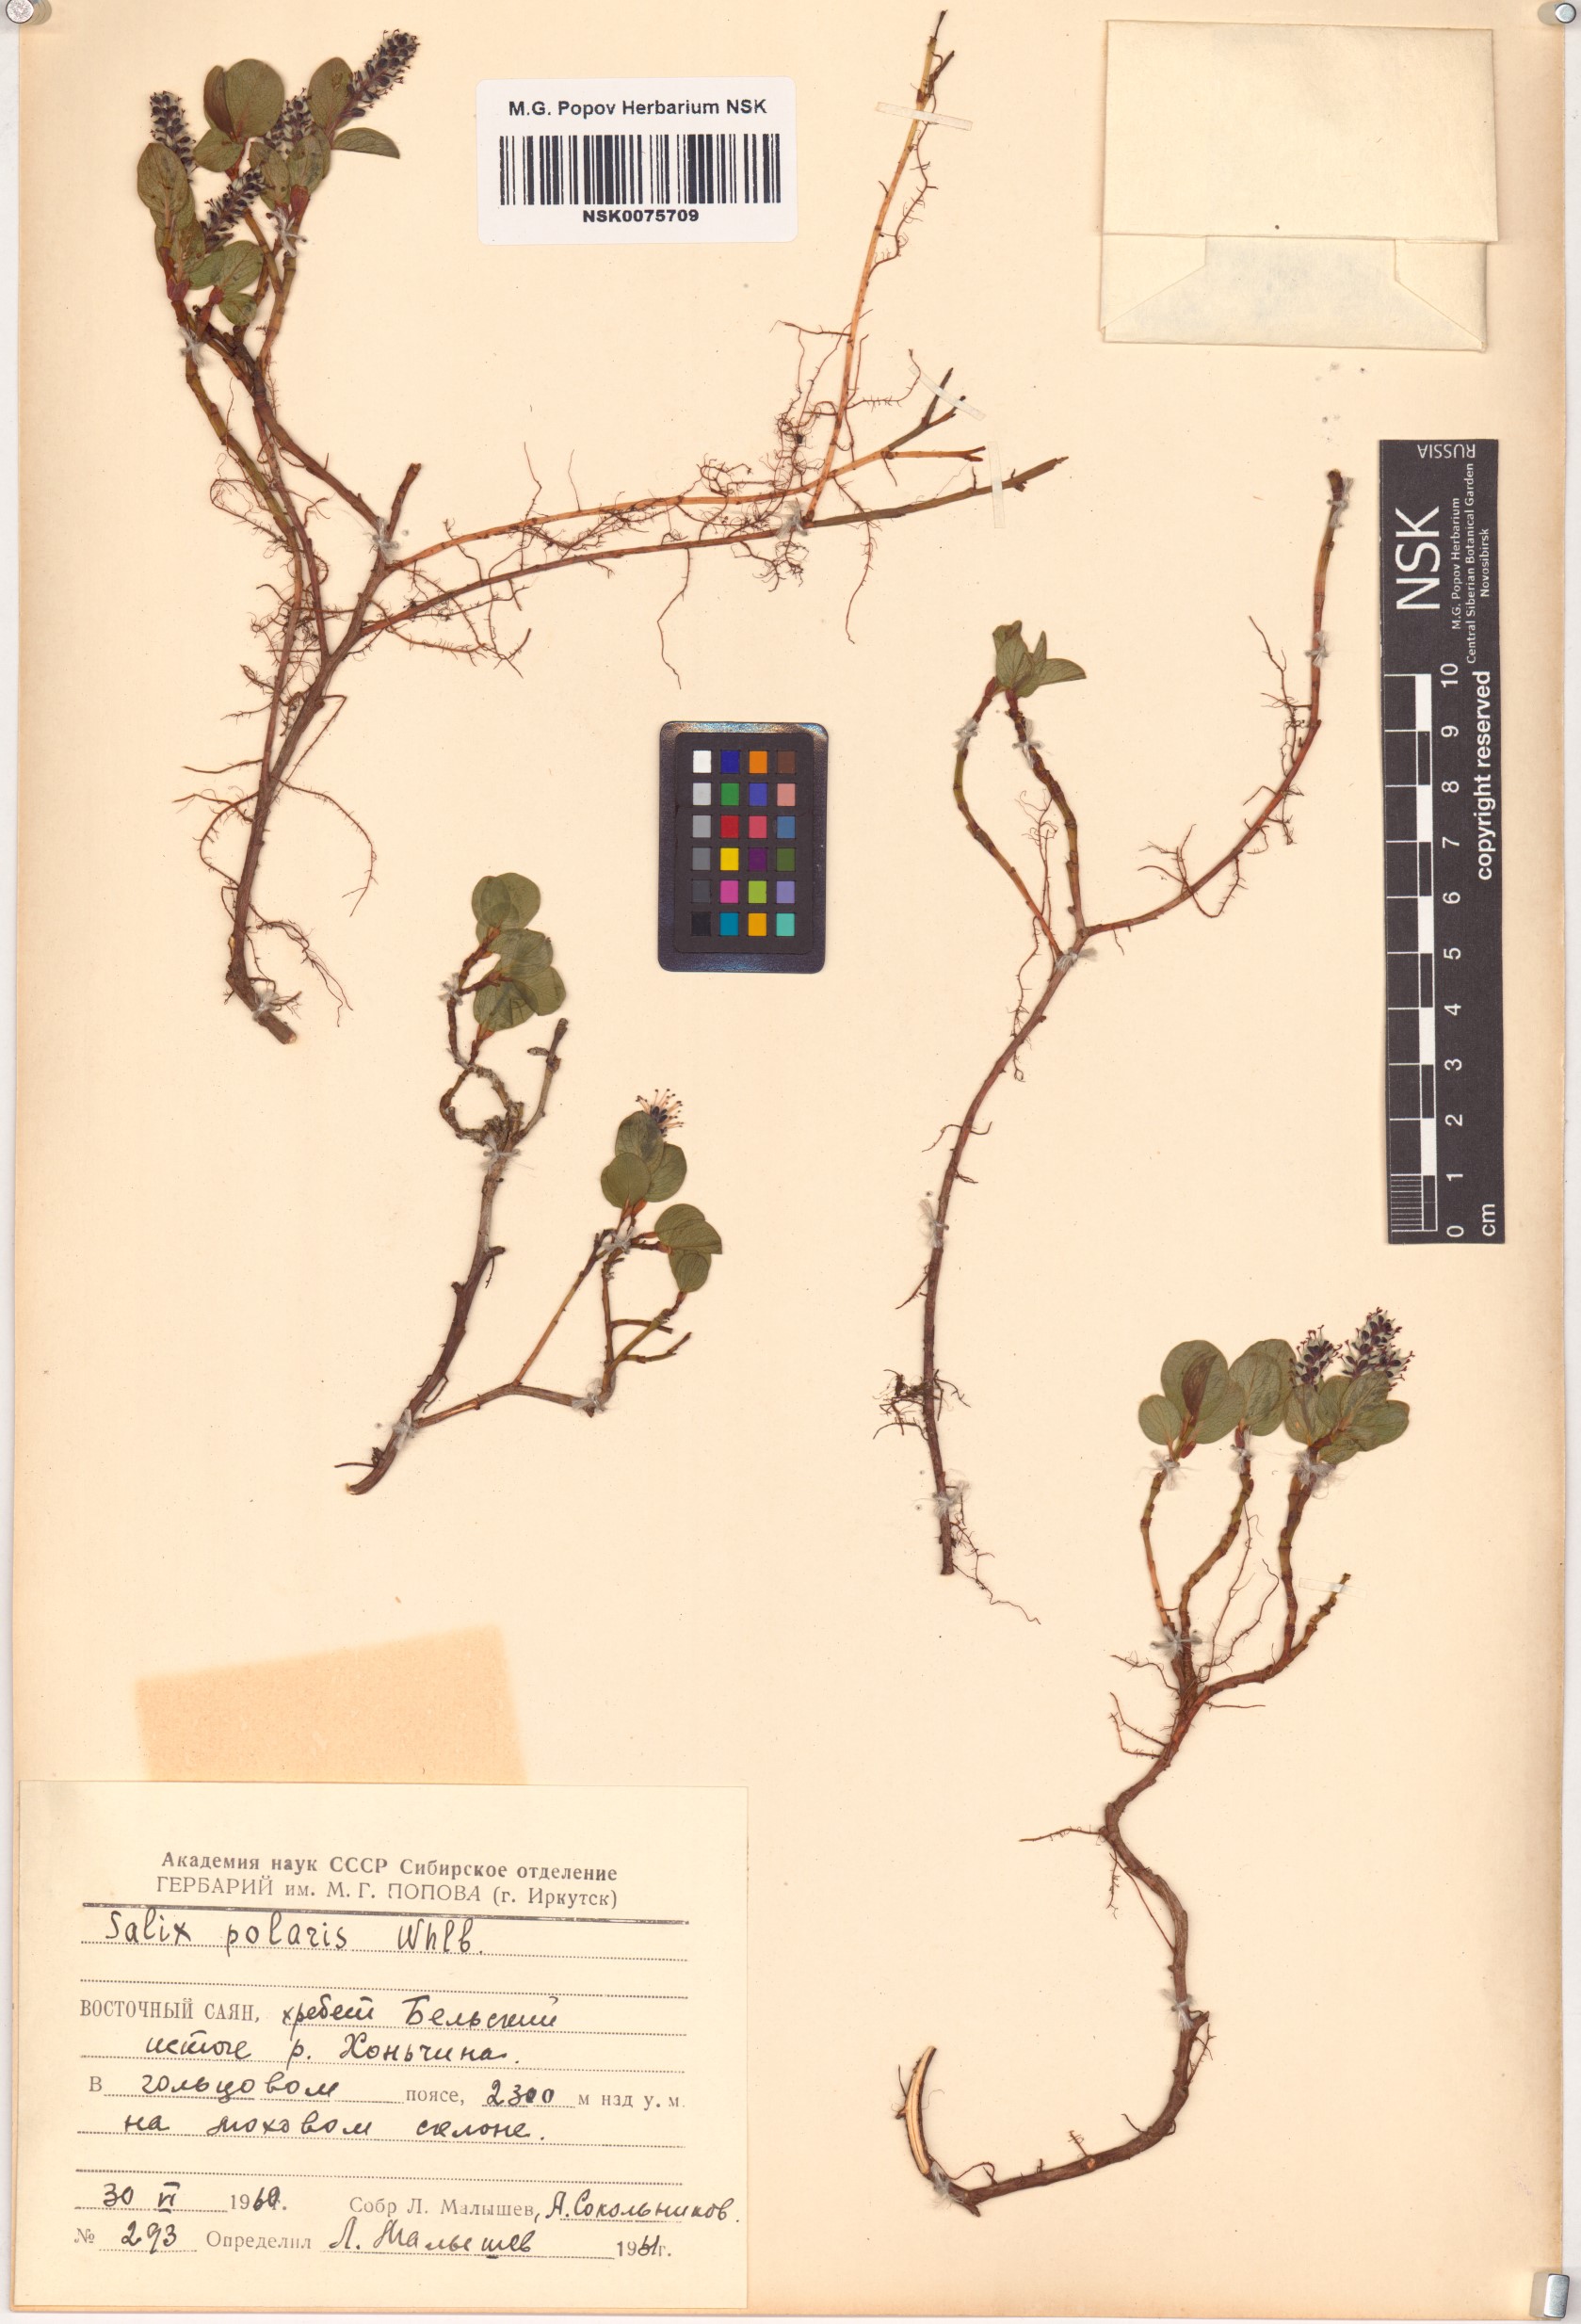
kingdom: Plantae
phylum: Tracheophyta
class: Magnoliopsida
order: Malpighiales
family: Salicaceae
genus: Salix
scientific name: Salix polaris
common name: Polar willow
